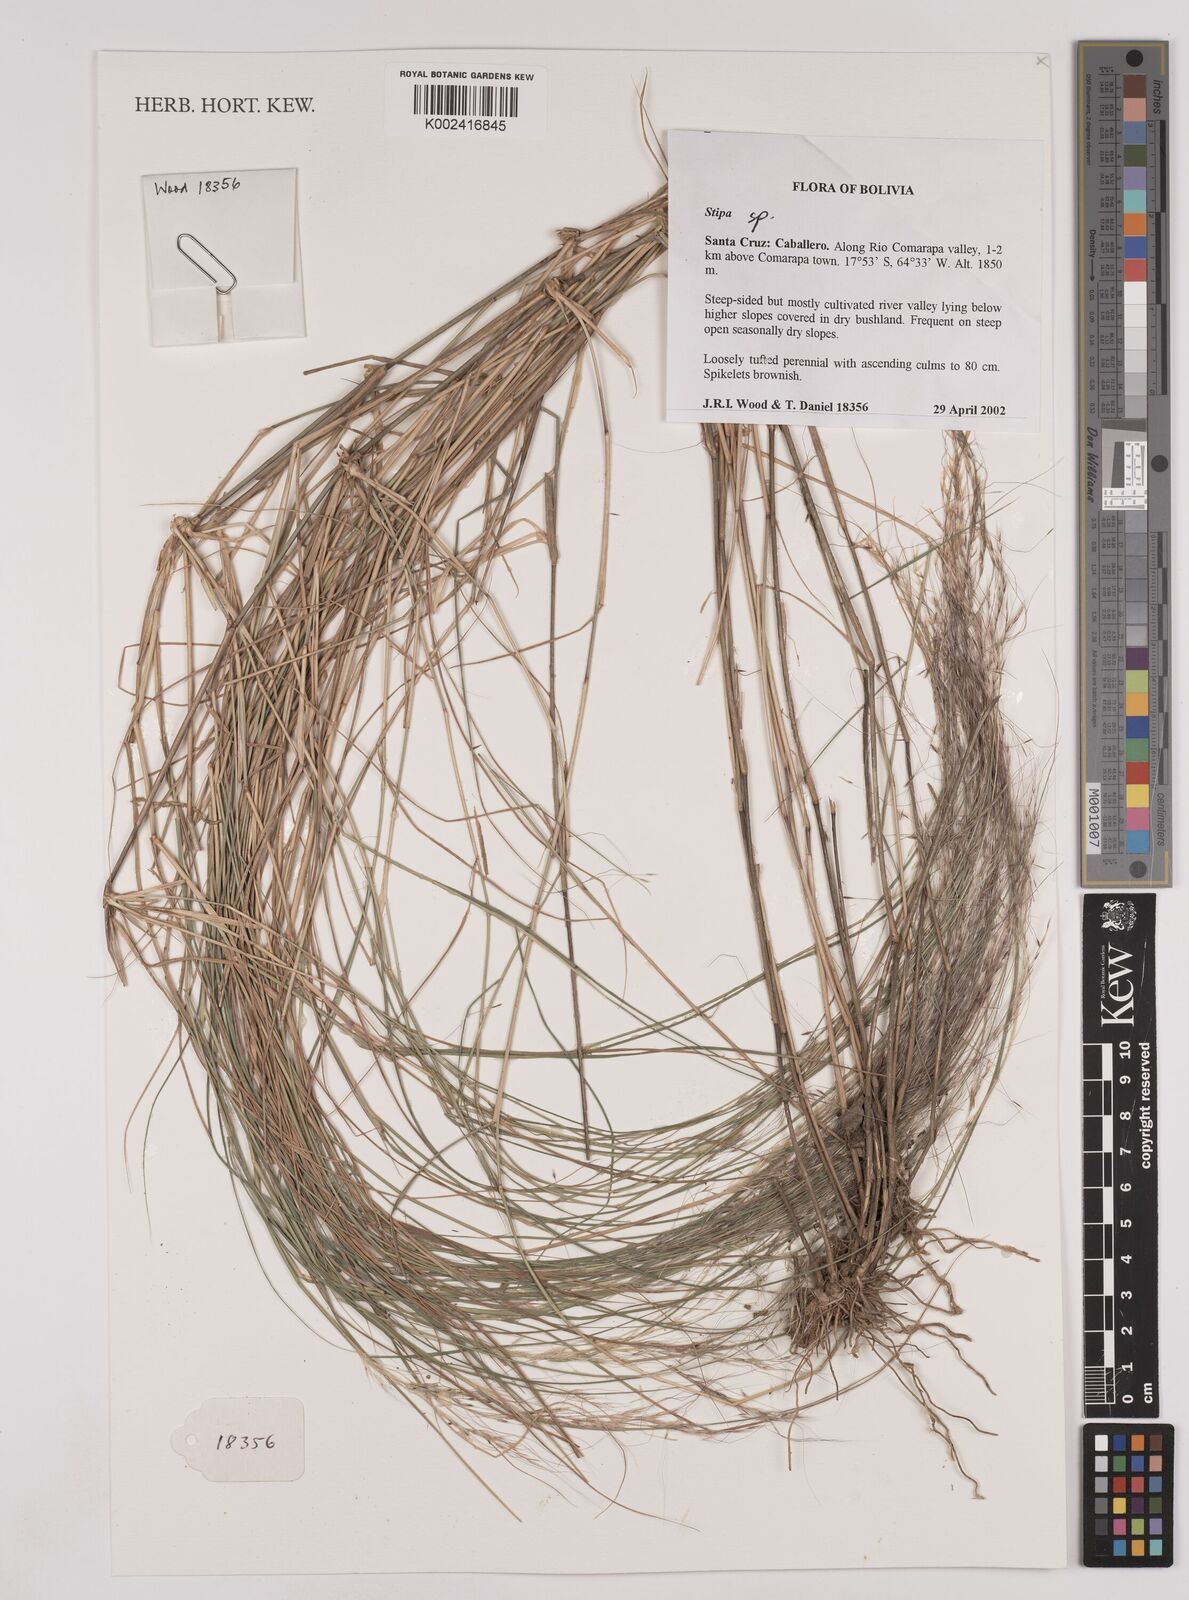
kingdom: Plantae
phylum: Tracheophyta
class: Liliopsida
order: Poales
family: Poaceae
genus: Stipa
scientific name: Stipa
